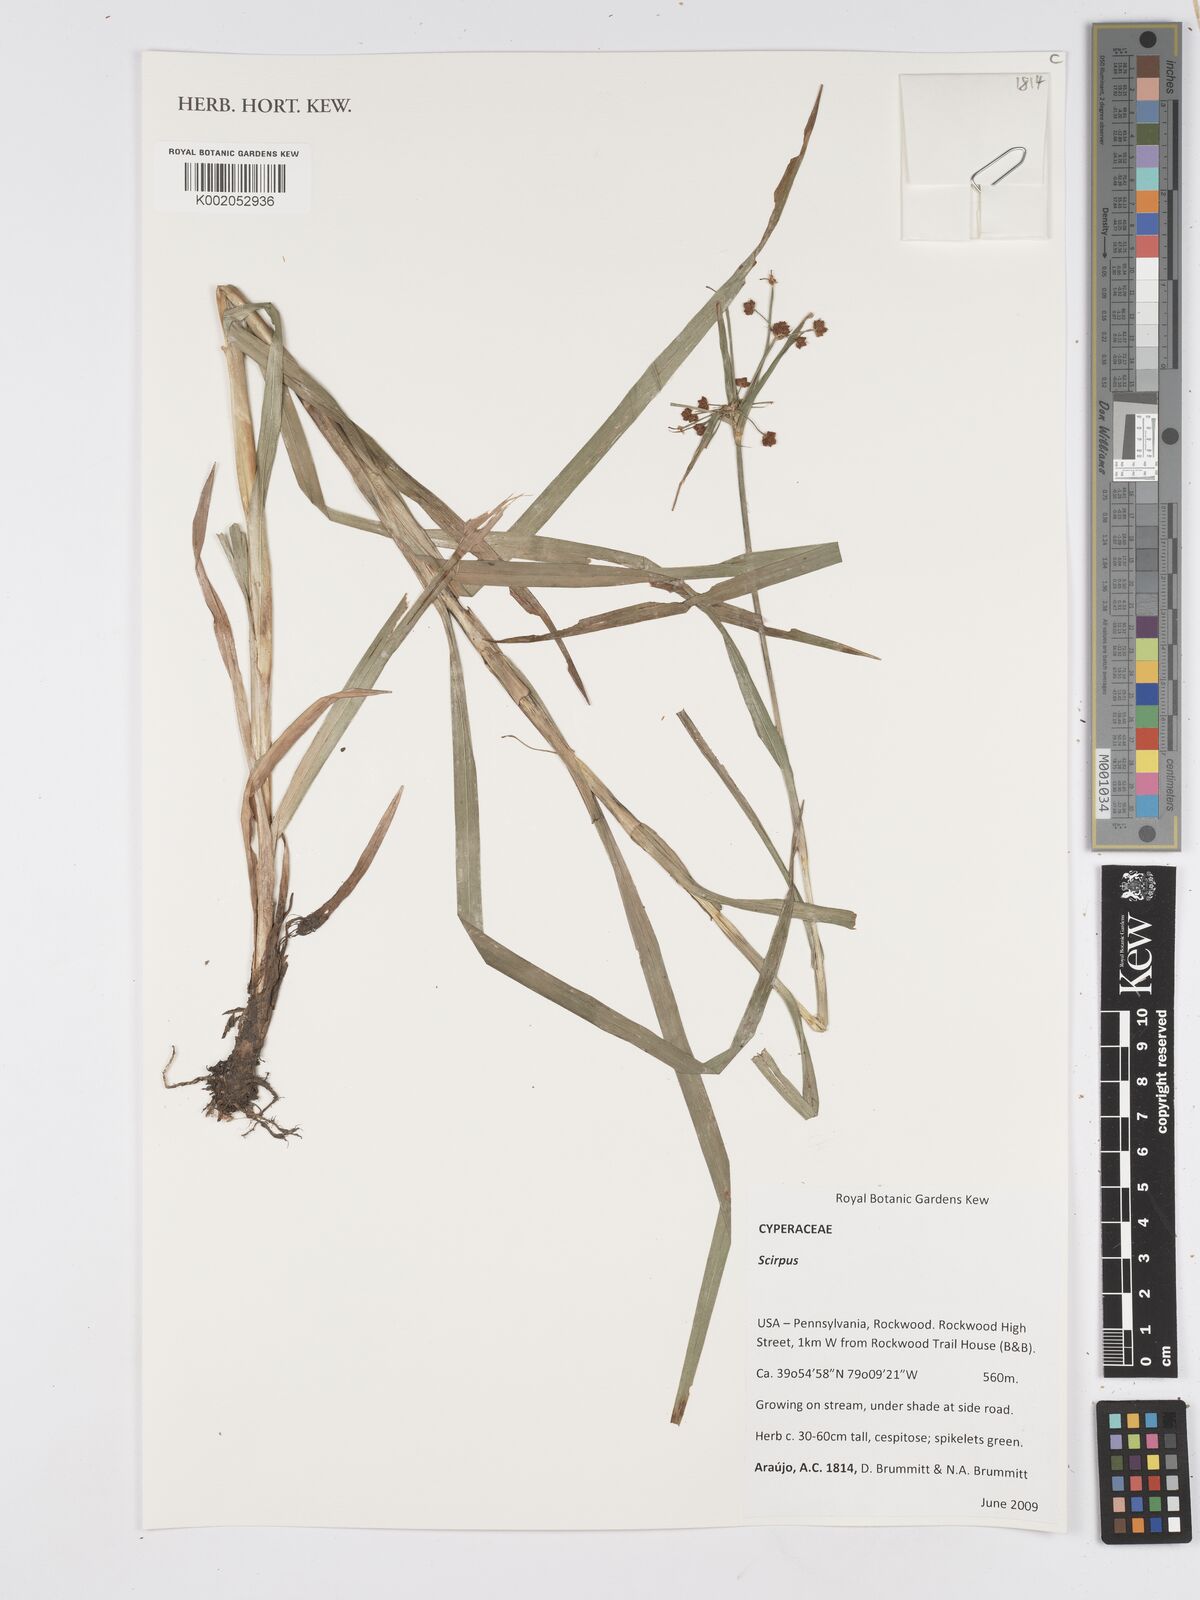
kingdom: Plantae
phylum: Tracheophyta
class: Liliopsida
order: Poales
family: Cyperaceae
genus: Scirpus
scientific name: Scirpus
